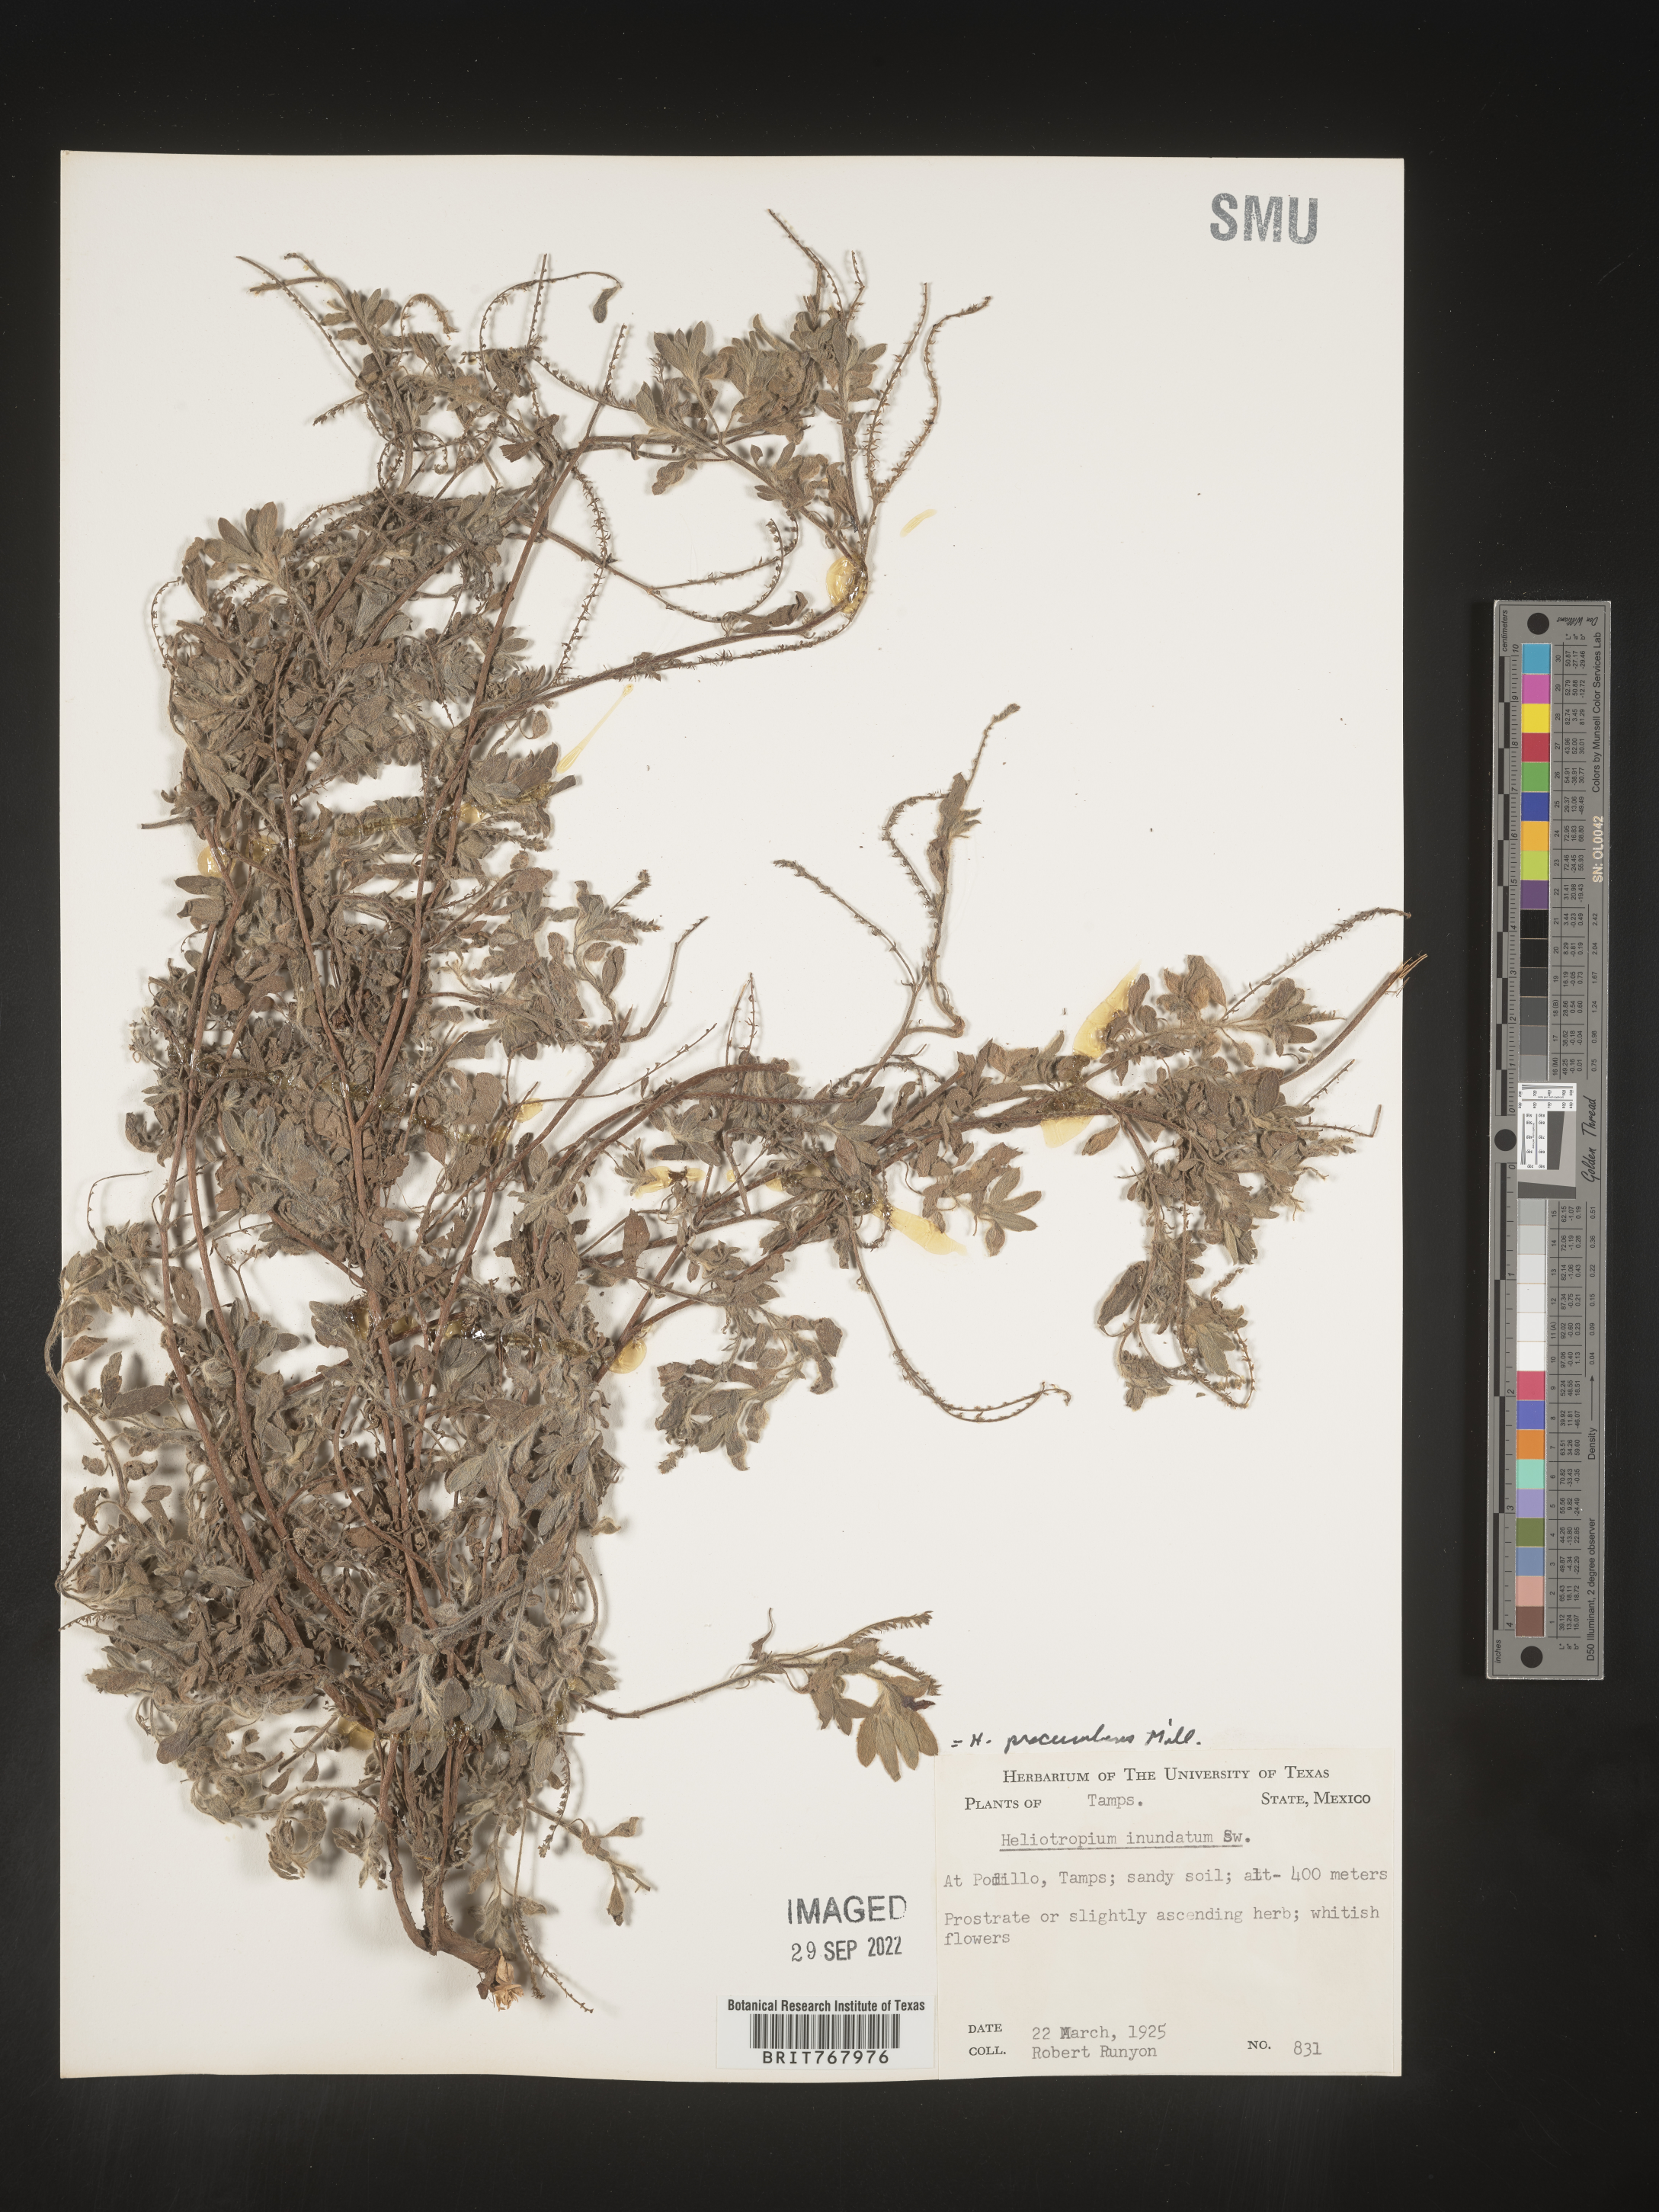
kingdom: Plantae
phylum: Tracheophyta
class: Magnoliopsida
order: Boraginales
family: Heliotropiaceae
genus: Heliotropium
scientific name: Heliotropium
